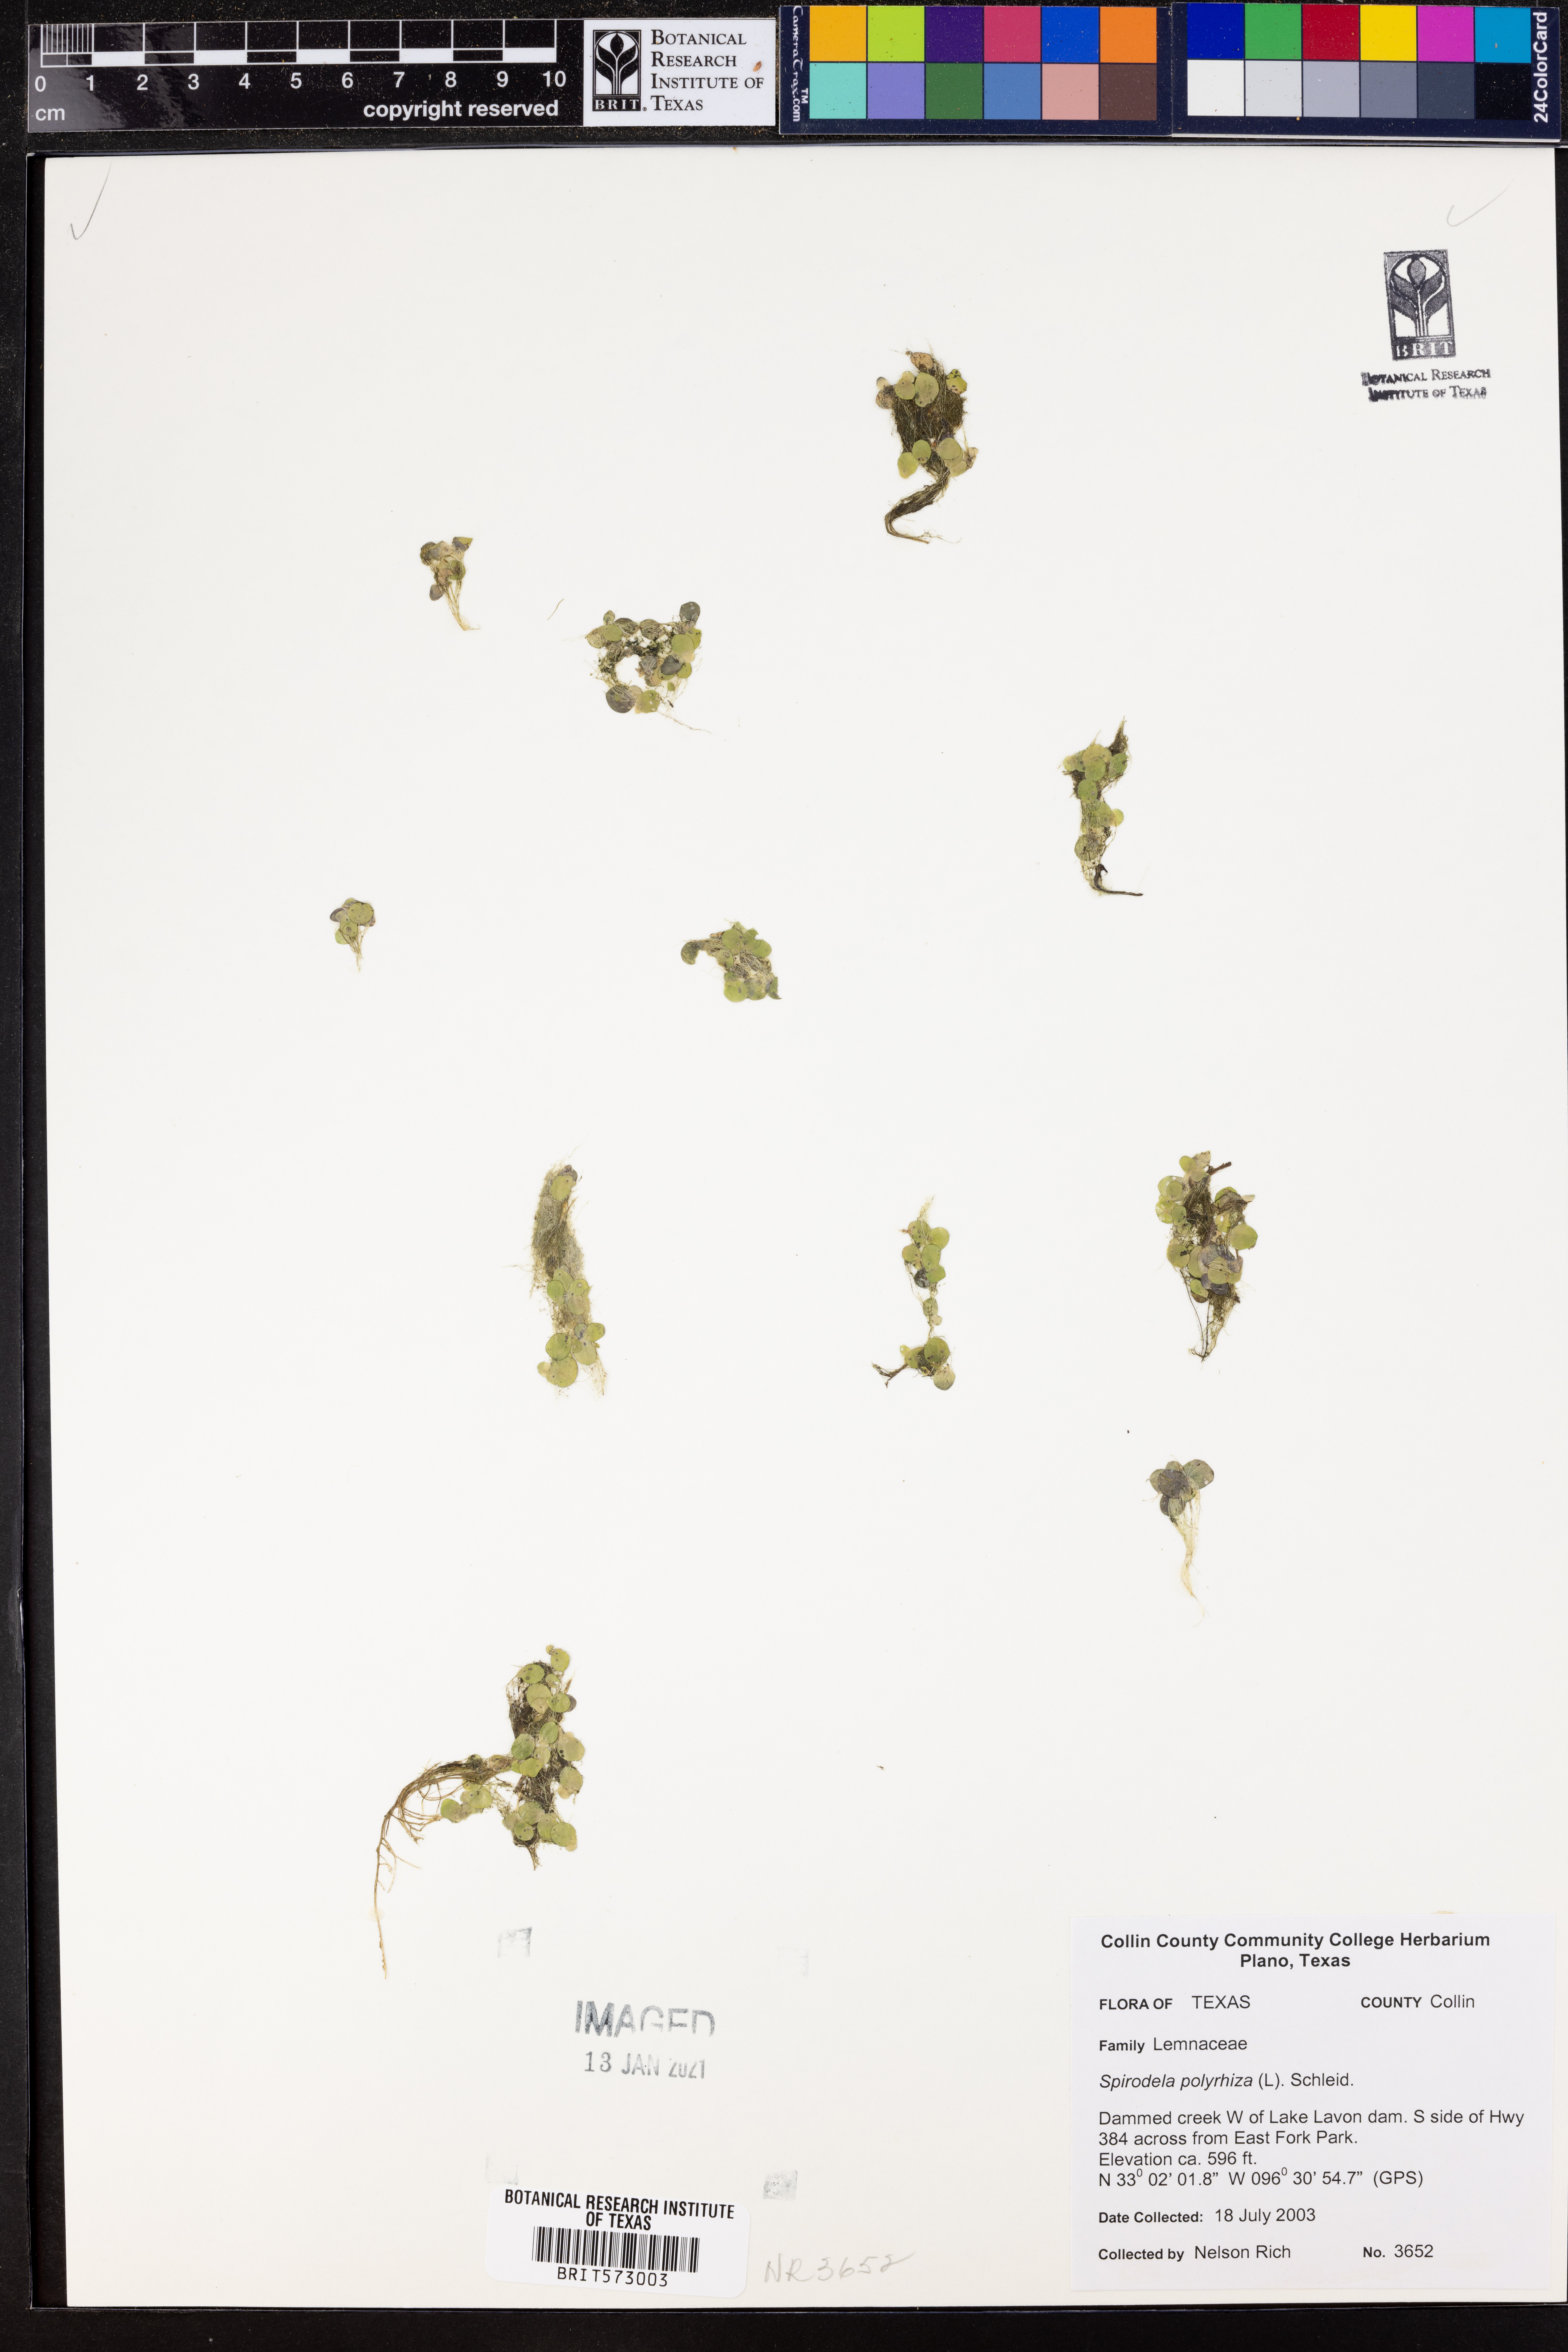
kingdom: Plantae
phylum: Tracheophyta
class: Liliopsida
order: Alismatales
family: Araceae
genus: Spirodela
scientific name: Spirodela polyrhiza
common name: Great duckweed
